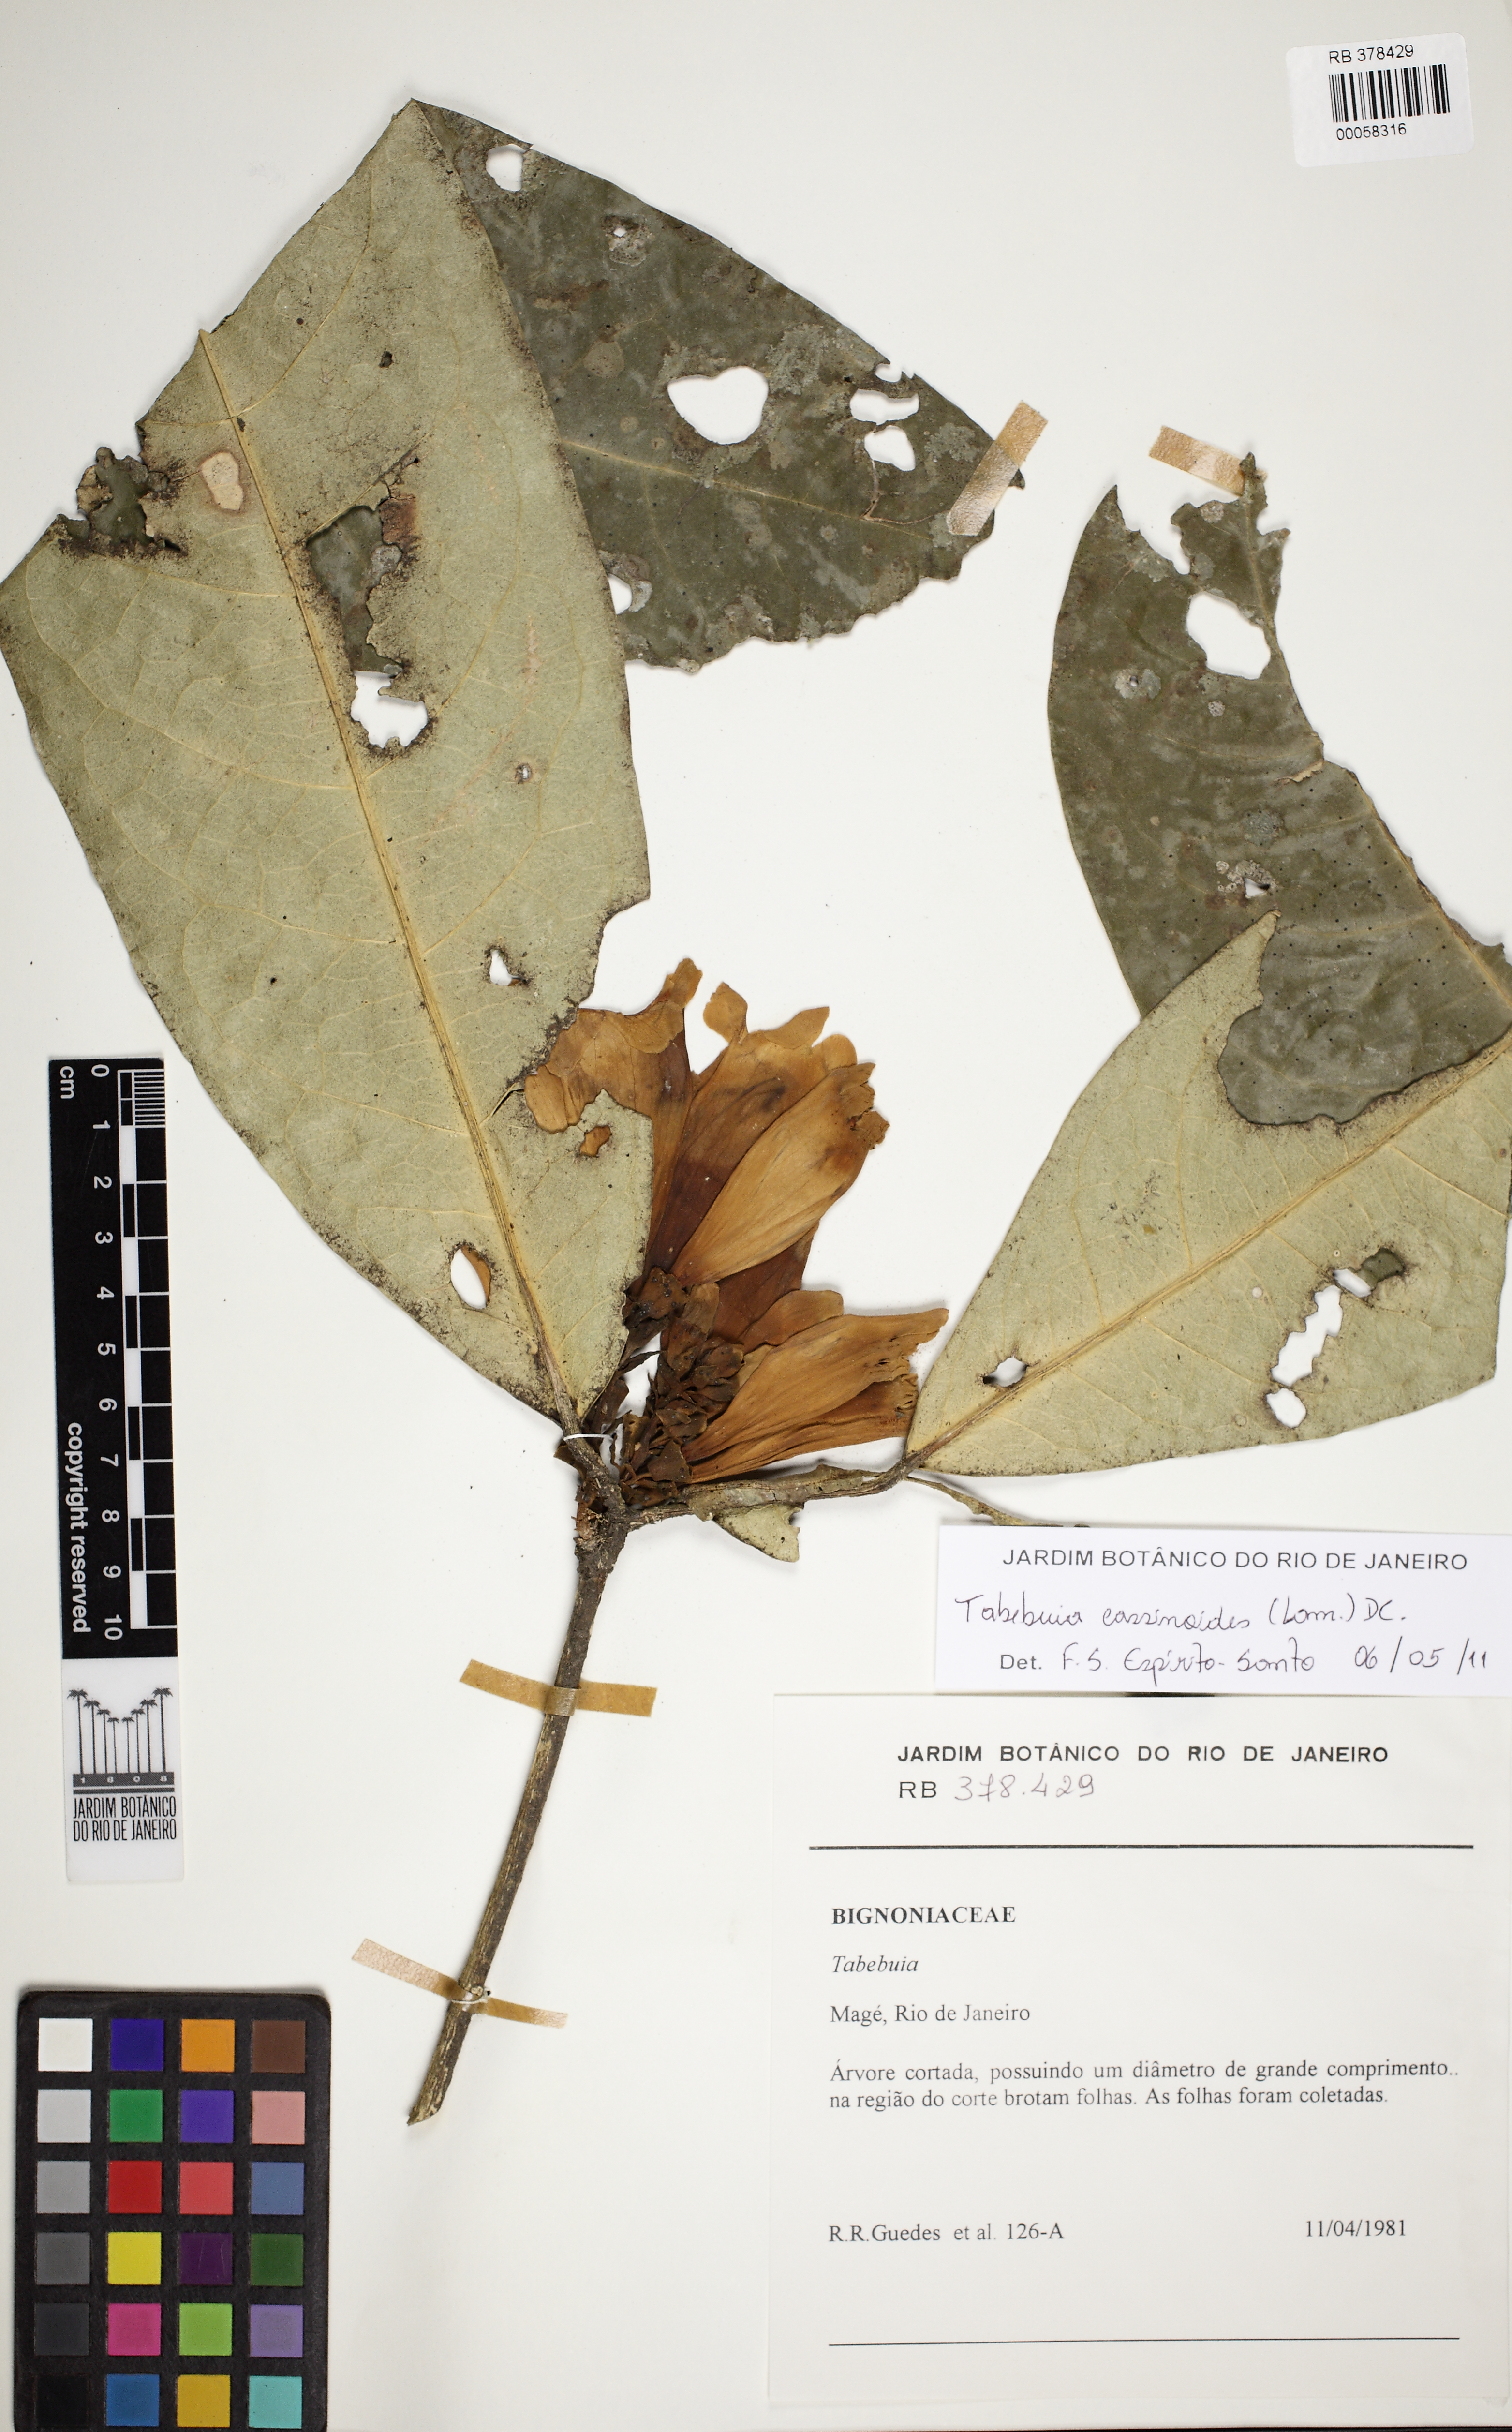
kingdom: Plantae
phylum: Tracheophyta
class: Magnoliopsida
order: Lamiales
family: Bignoniaceae
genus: Tabebuia
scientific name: Tabebuia cassinoides
